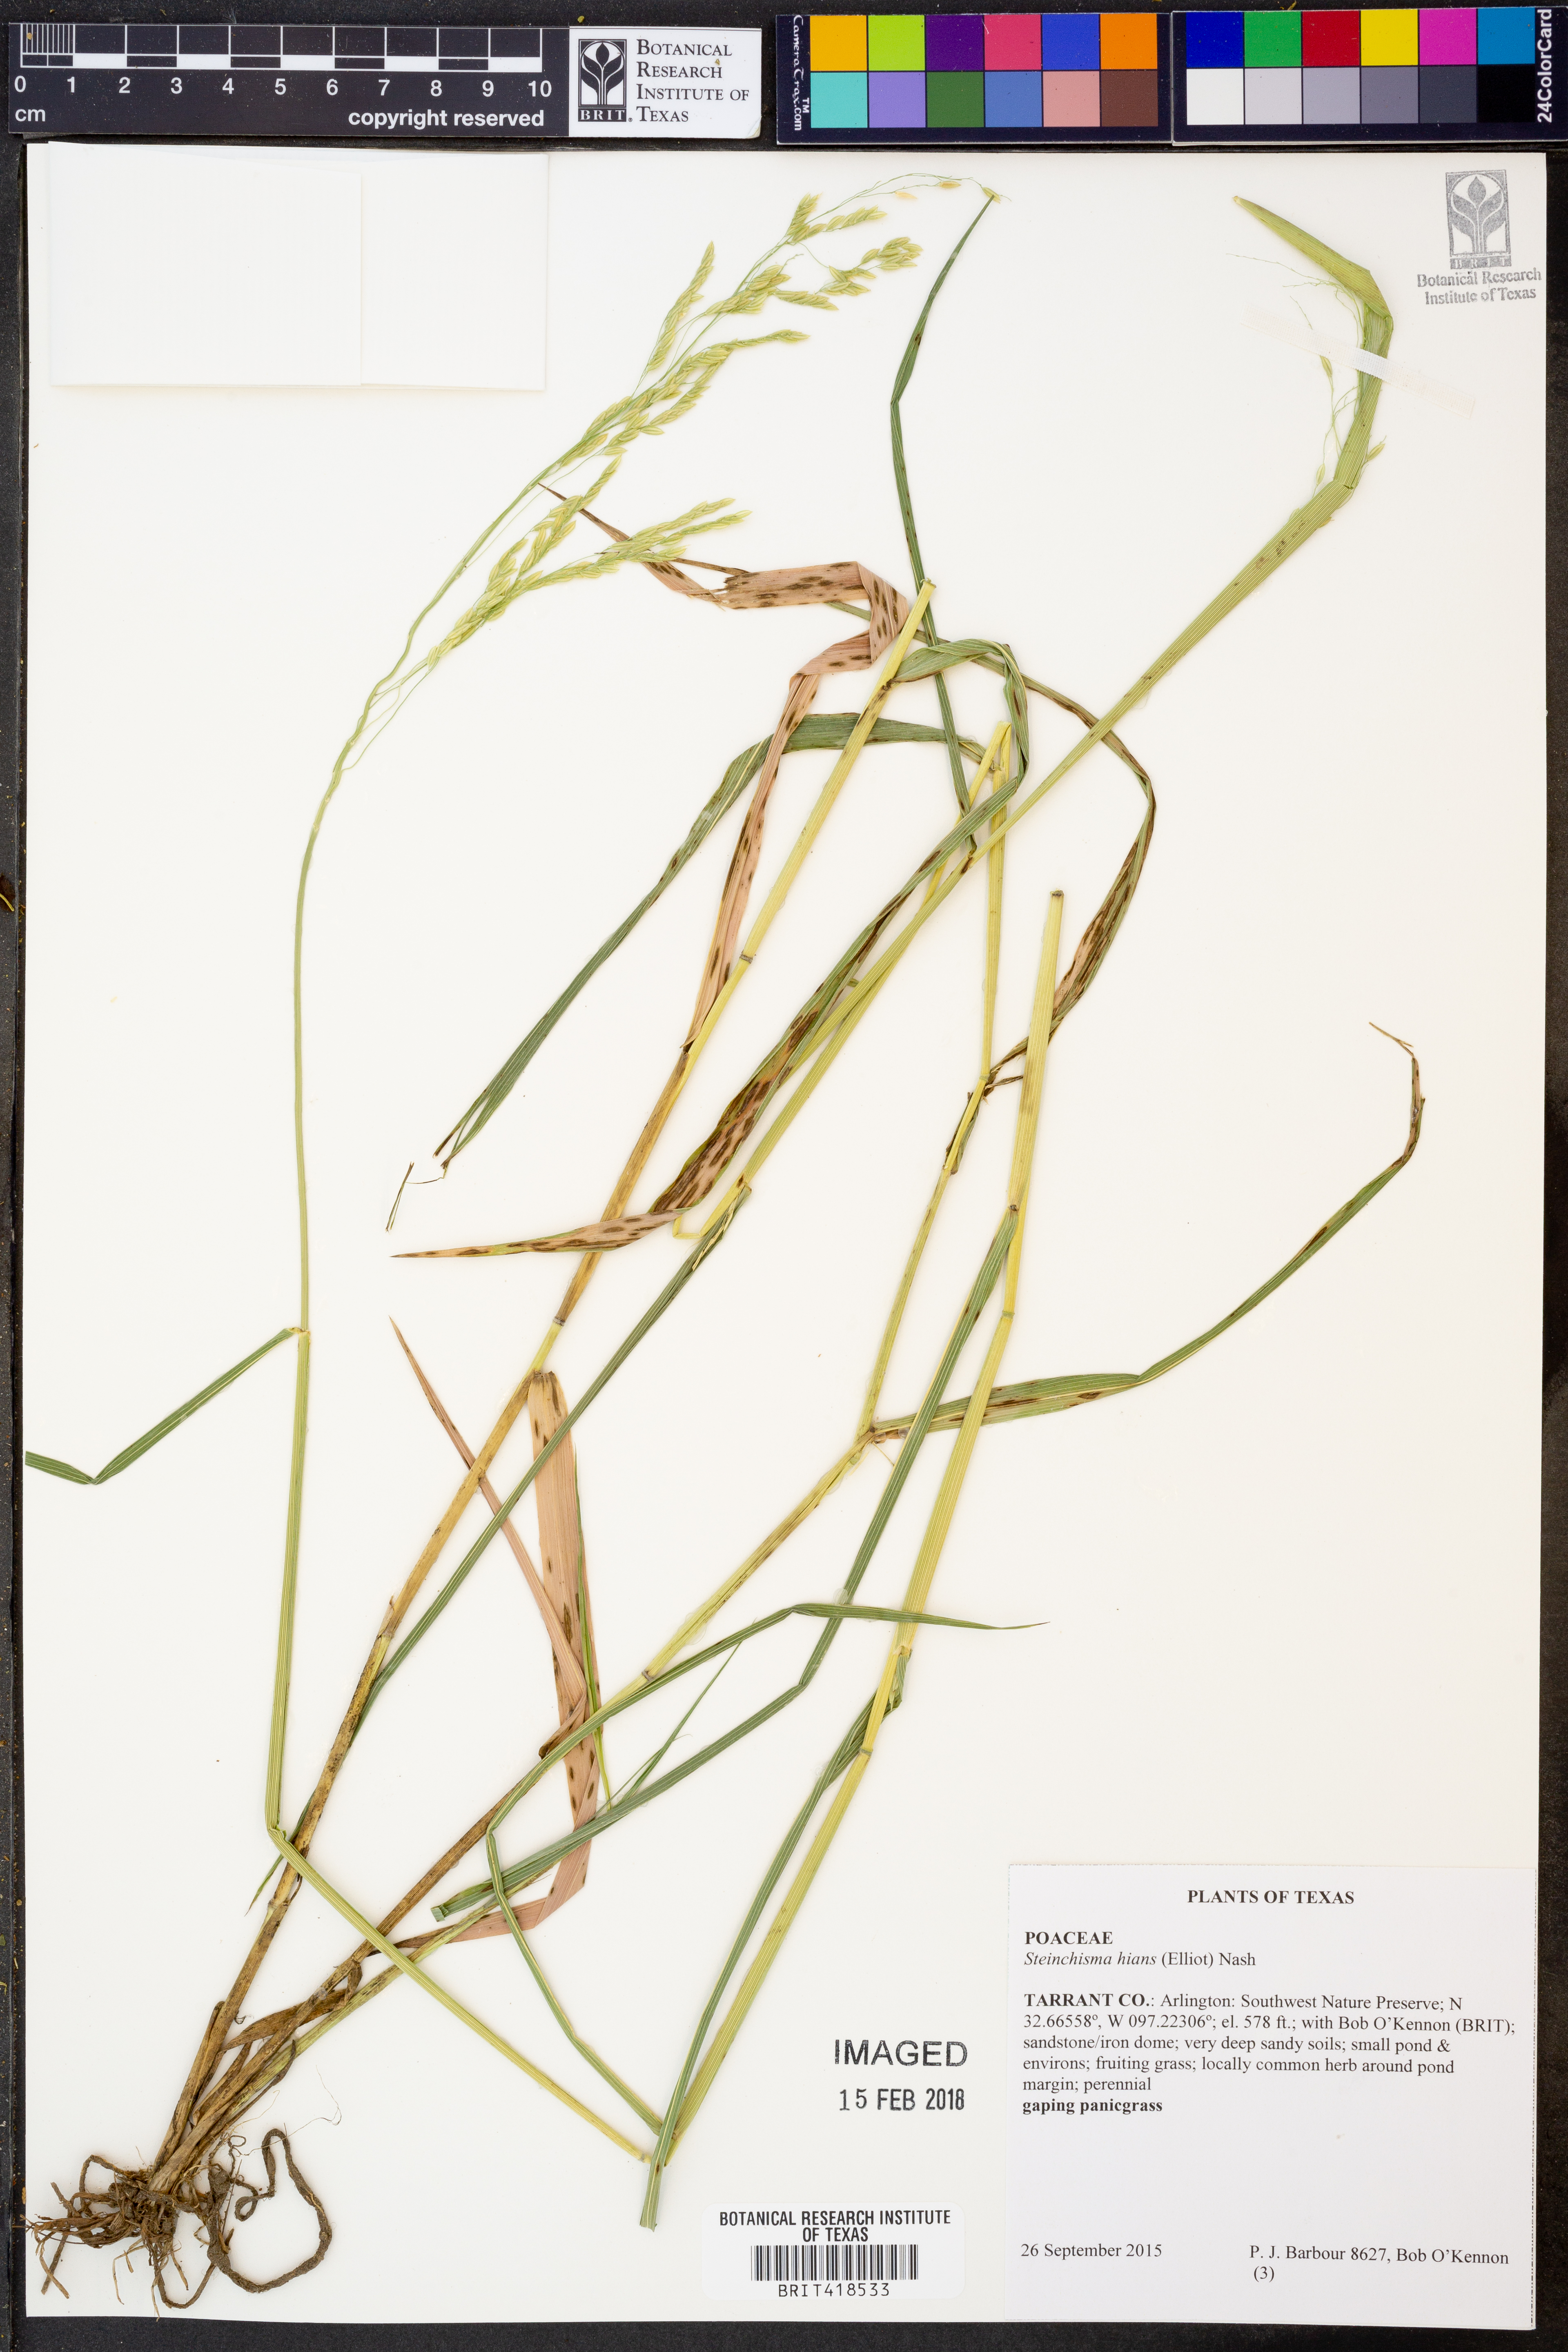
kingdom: Plantae
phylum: Tracheophyta
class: Liliopsida
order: Poales
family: Poaceae
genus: Steinchisma
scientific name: Steinchisma hians
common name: Gaping panic grass
